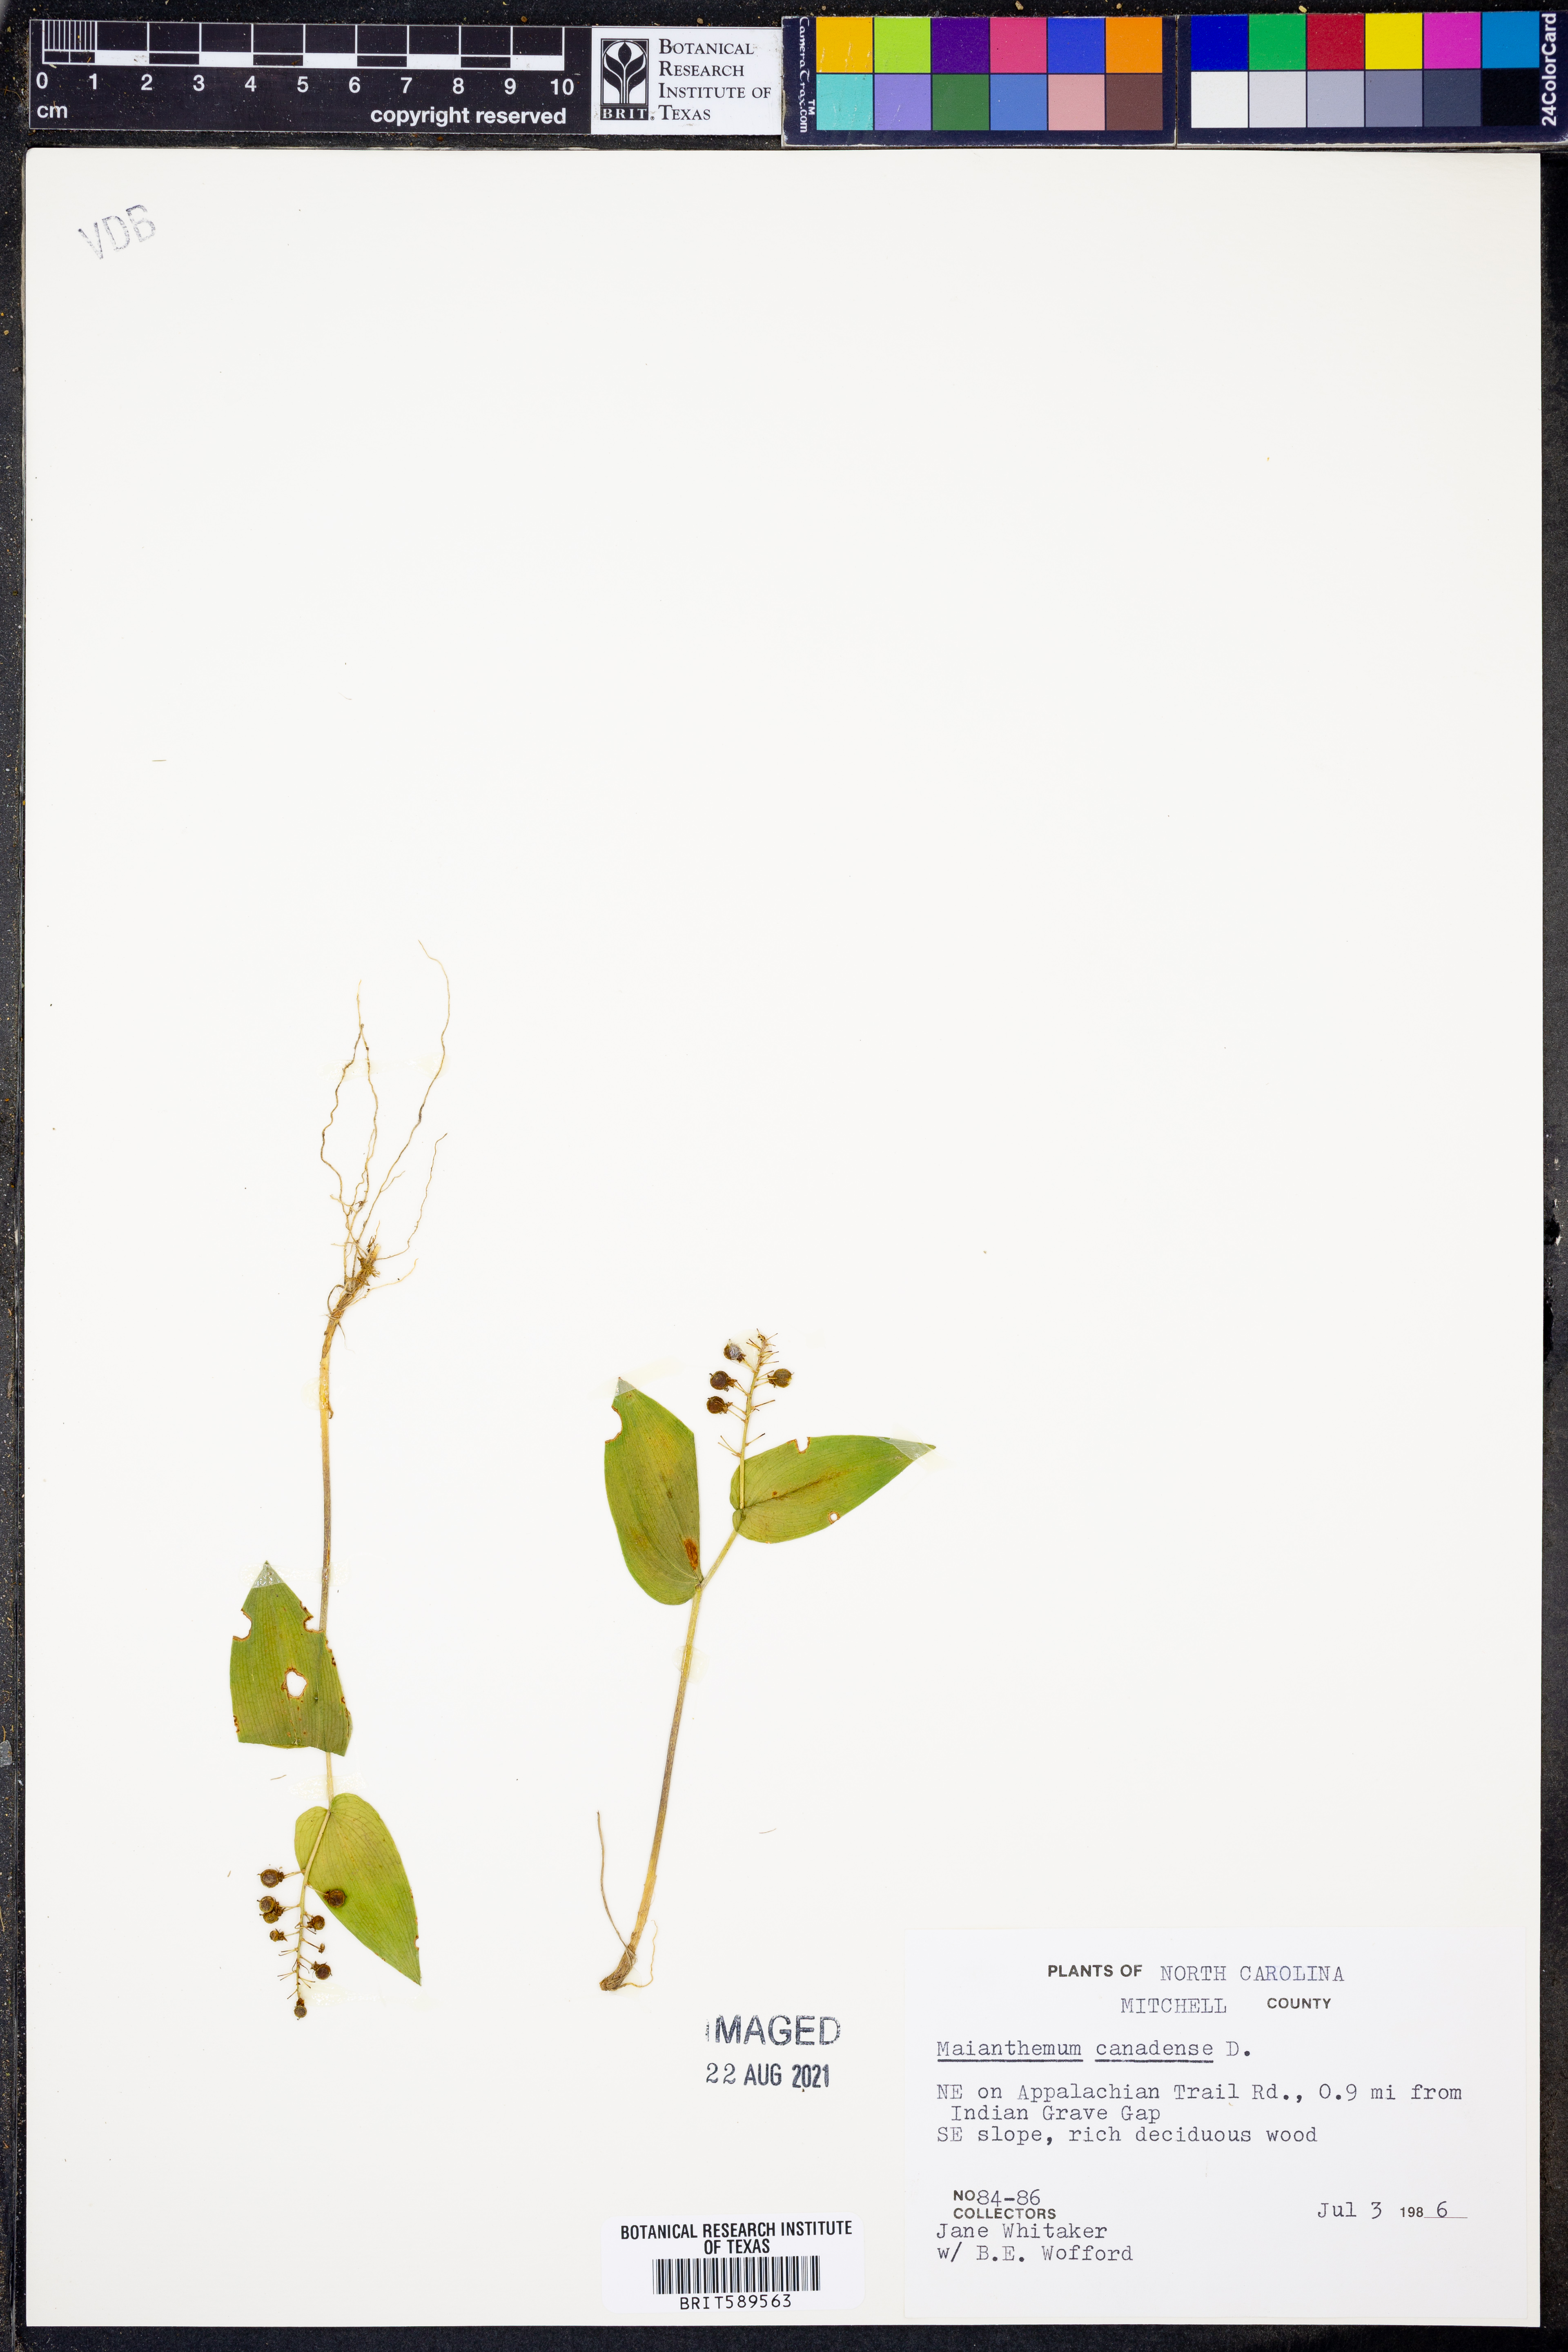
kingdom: Plantae
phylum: Tracheophyta
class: Liliopsida
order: Asparagales
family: Asparagaceae
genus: Maianthemum
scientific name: Maianthemum canadense
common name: False lily-of-the-valley
